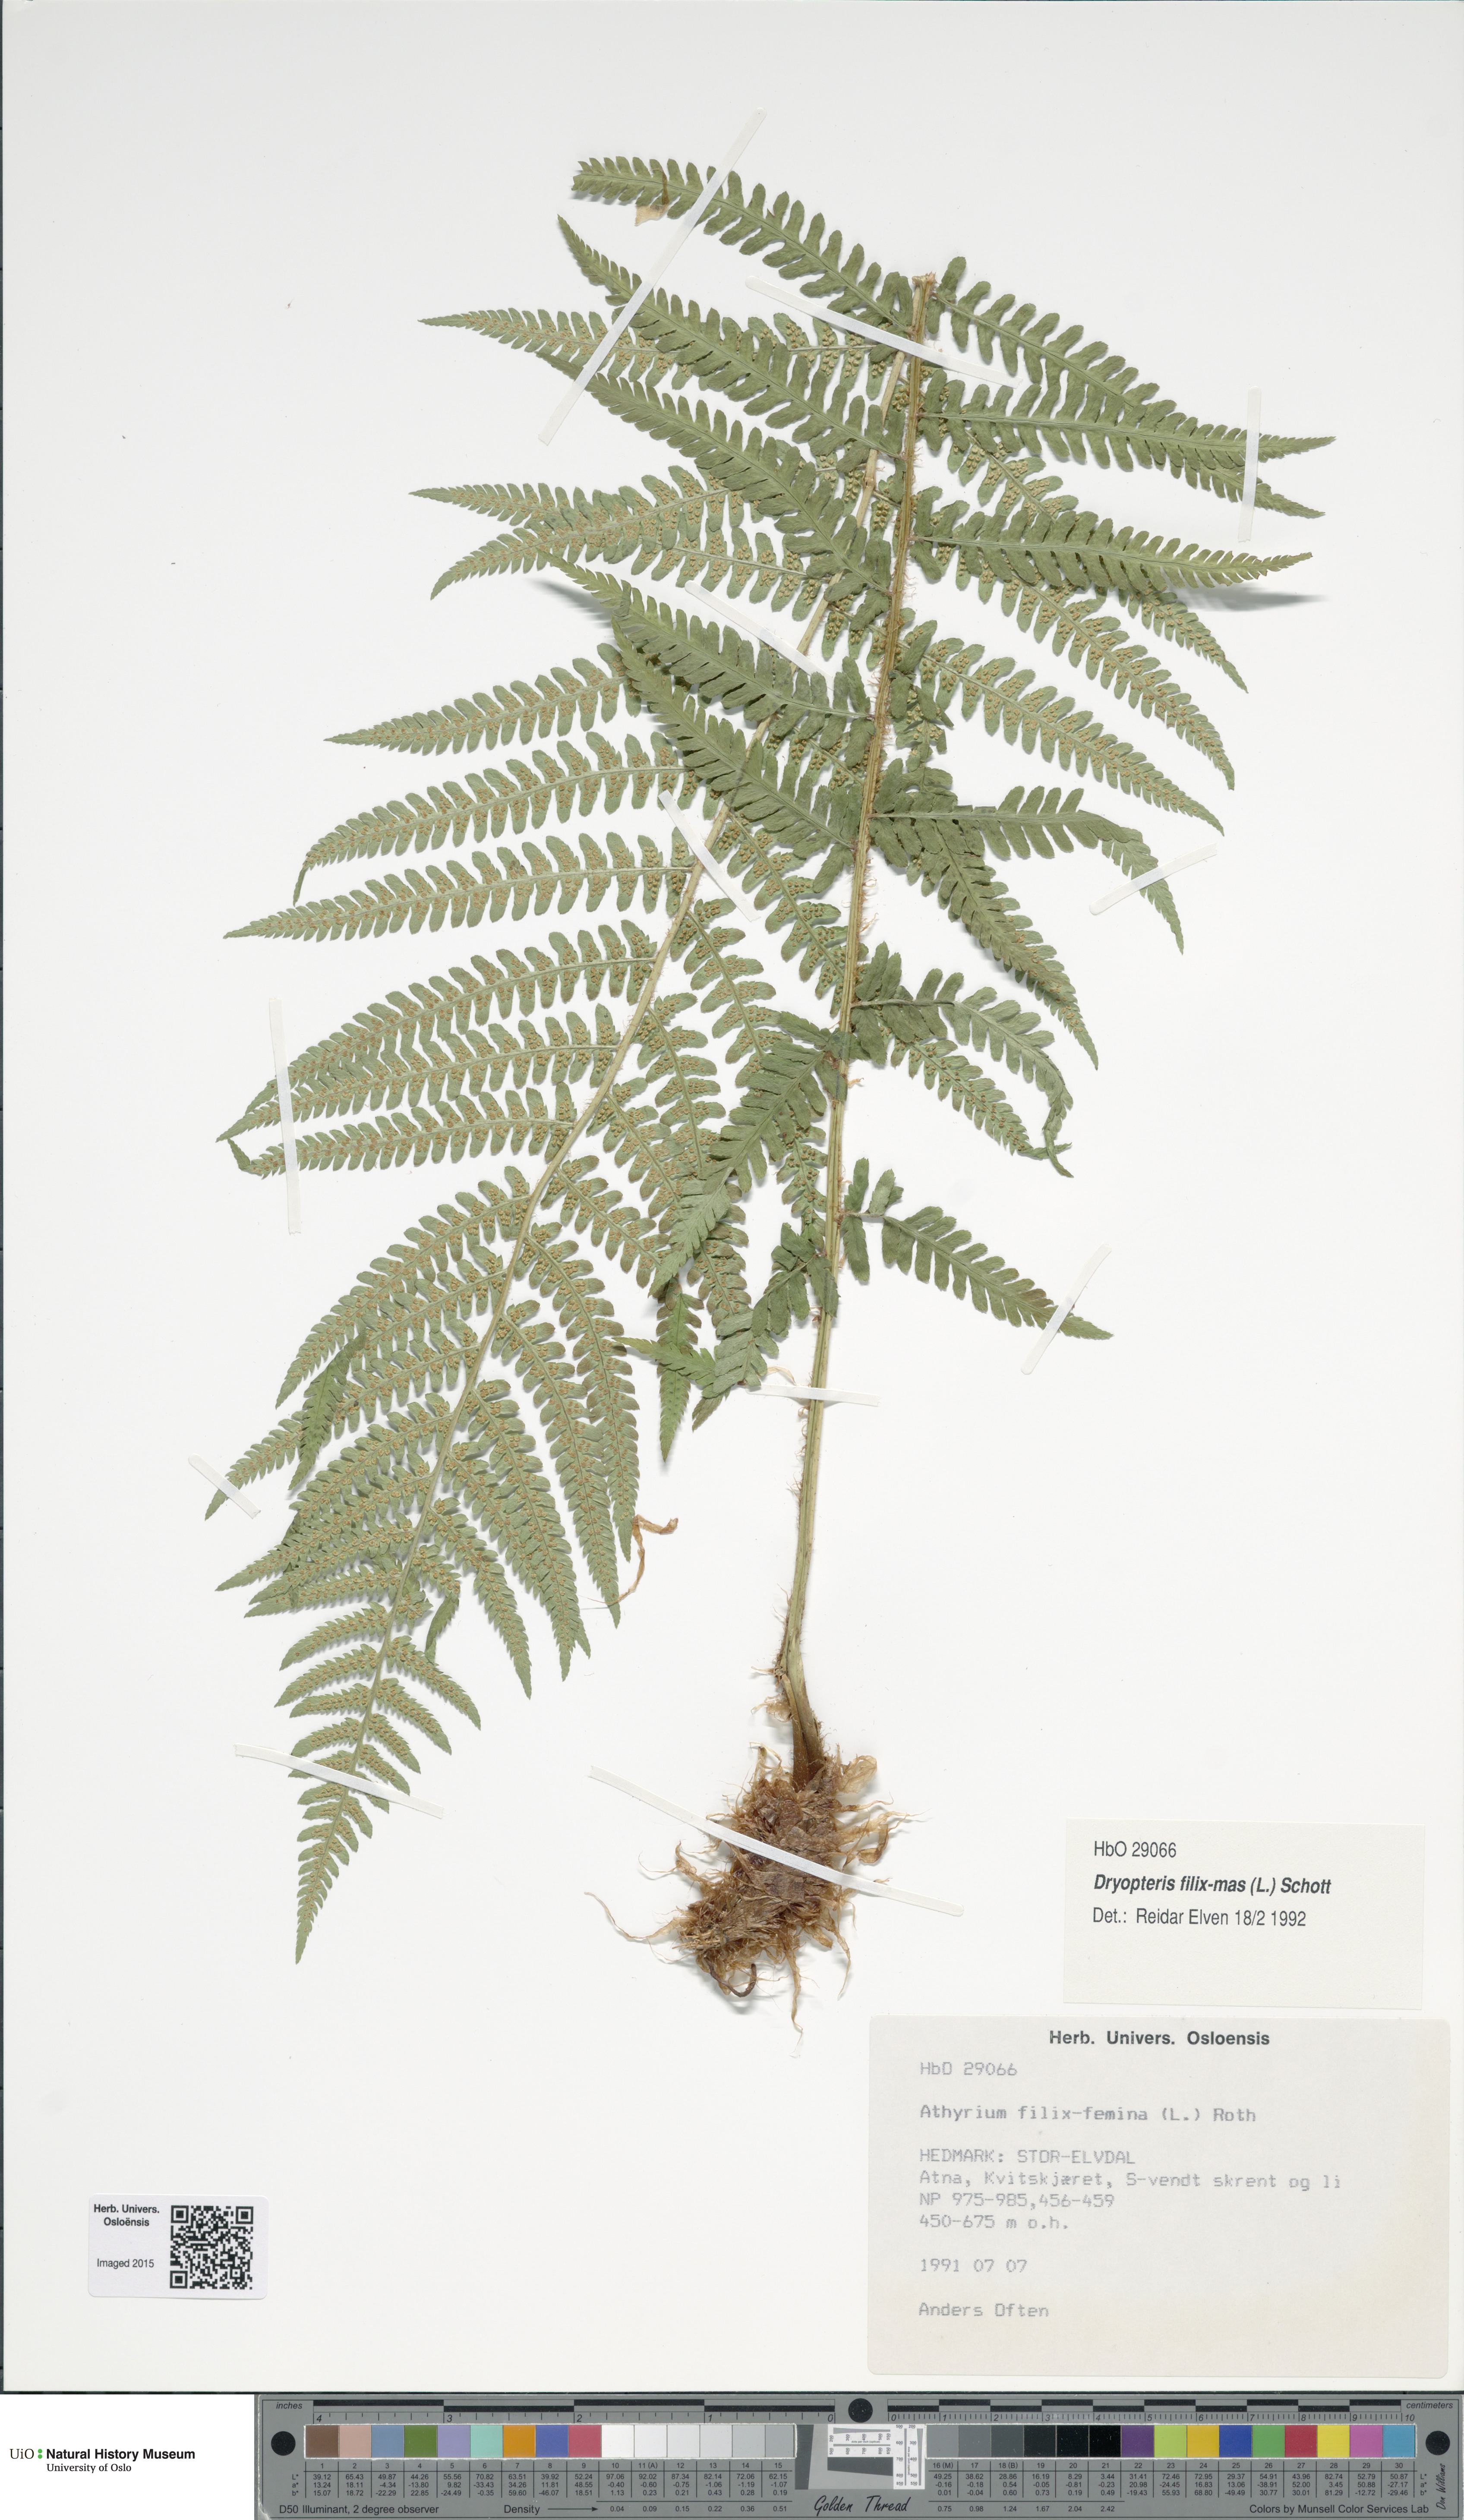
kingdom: Plantae
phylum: Tracheophyta
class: Polypodiopsida
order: Polypodiales
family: Dryopteridaceae
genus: Dryopteris
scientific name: Dryopteris filix-mas
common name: Male fern
